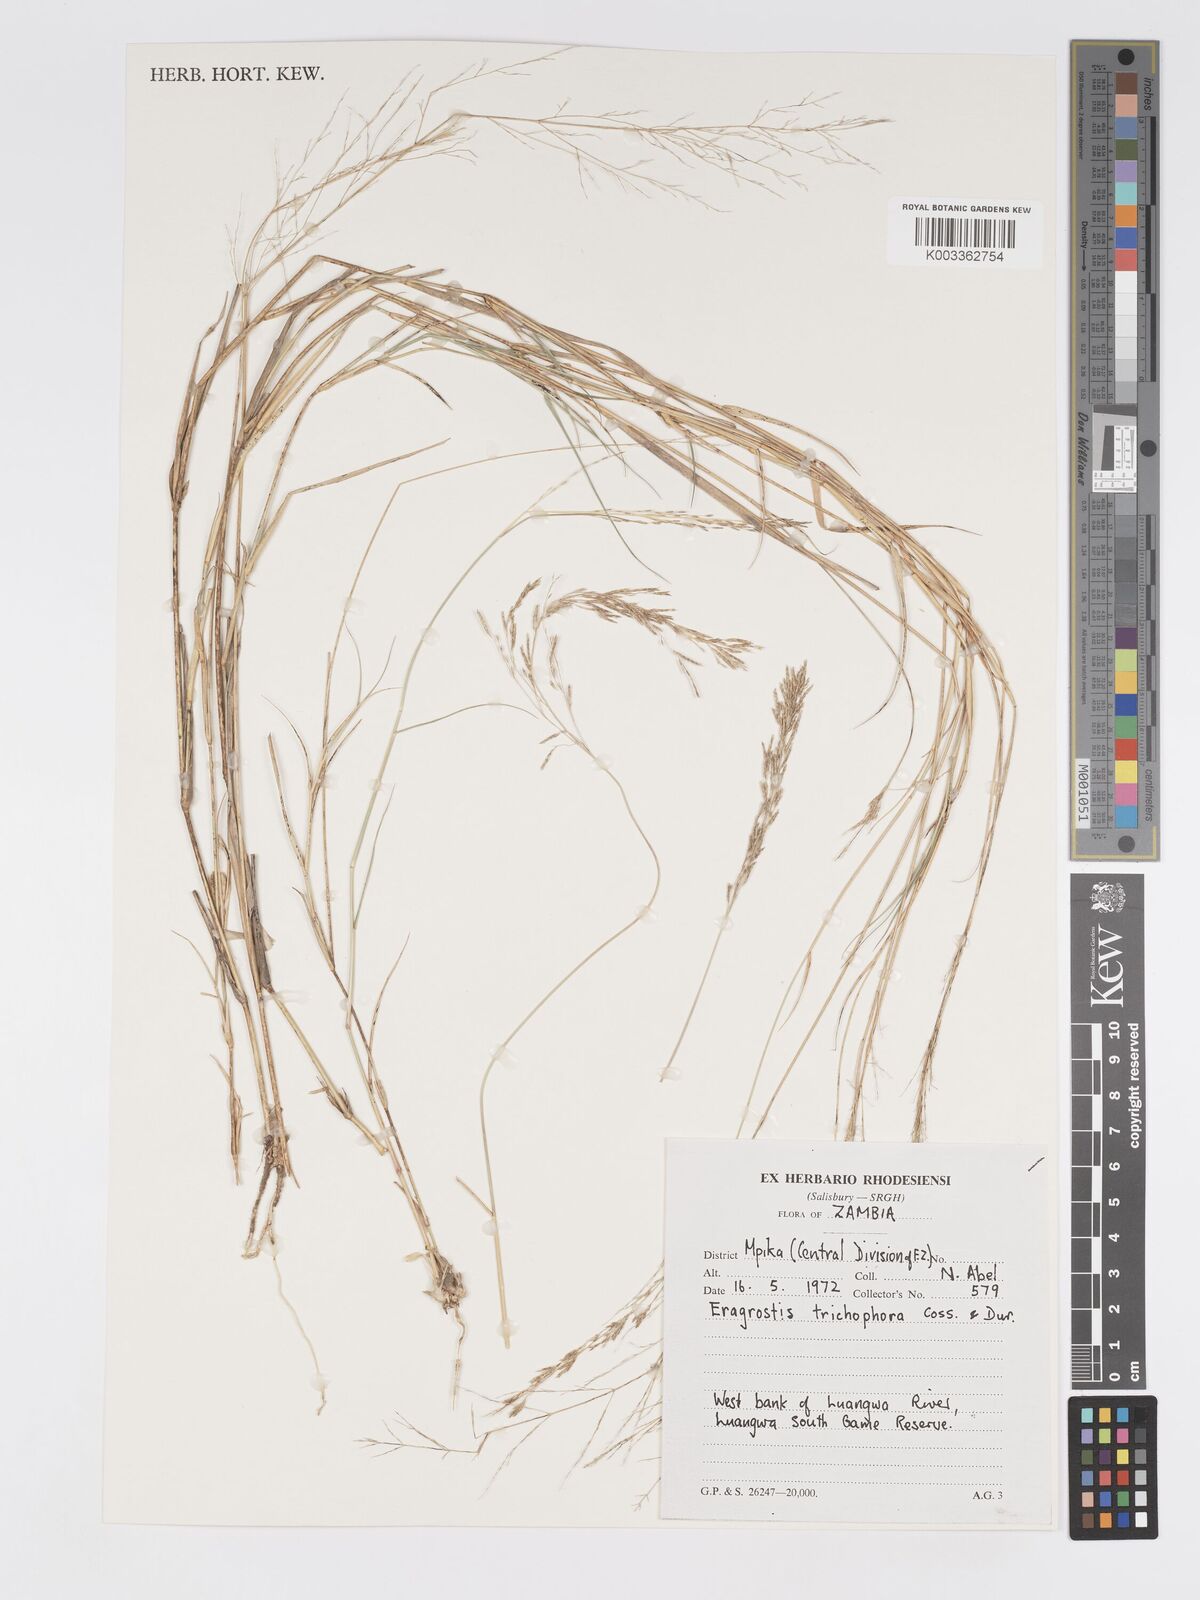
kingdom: Plantae
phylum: Tracheophyta
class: Liliopsida
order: Poales
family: Poaceae
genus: Eragrostis
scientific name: Eragrostis cylindriflora
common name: Cylinderflower lovegrass
